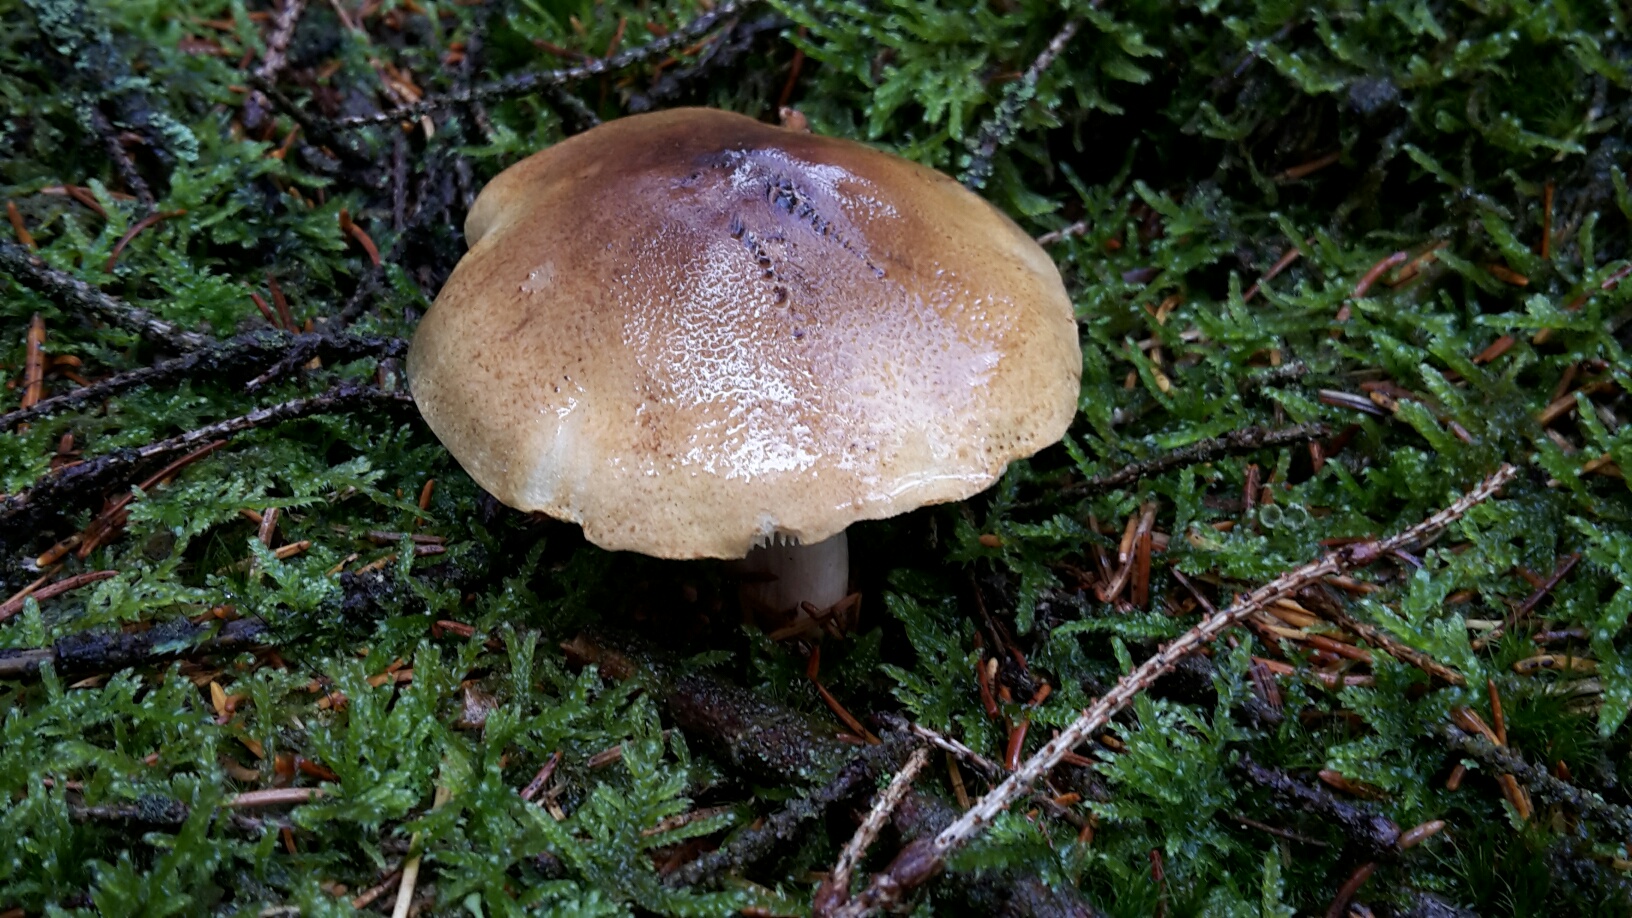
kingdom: Fungi
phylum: Basidiomycota
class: Agaricomycetes
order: Agaricales
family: Tricholomataceae
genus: Tricholoma
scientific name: Tricholoma aestuans
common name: kegle-ridderhat
